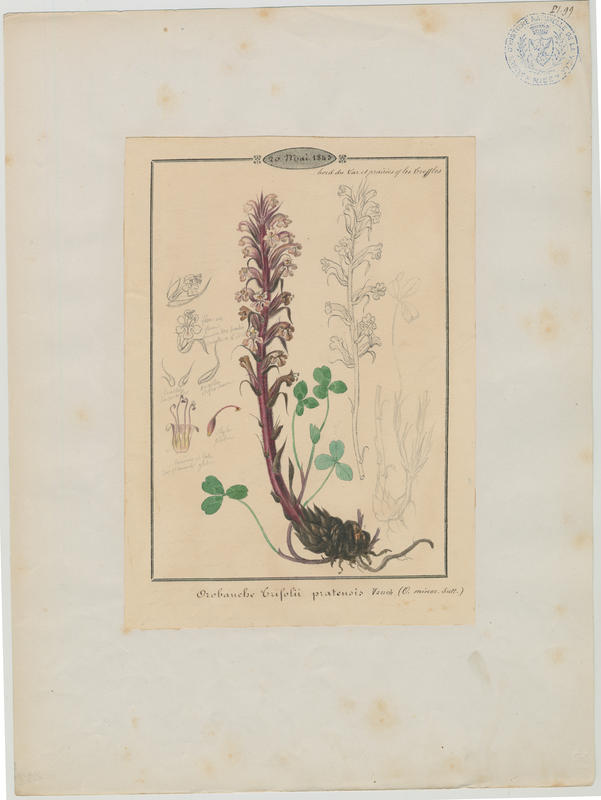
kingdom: Plantae
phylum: Tracheophyta
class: Magnoliopsida
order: Lamiales
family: Orobanchaceae
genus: Orobanche
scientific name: Orobanche minor
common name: Common broomrape
